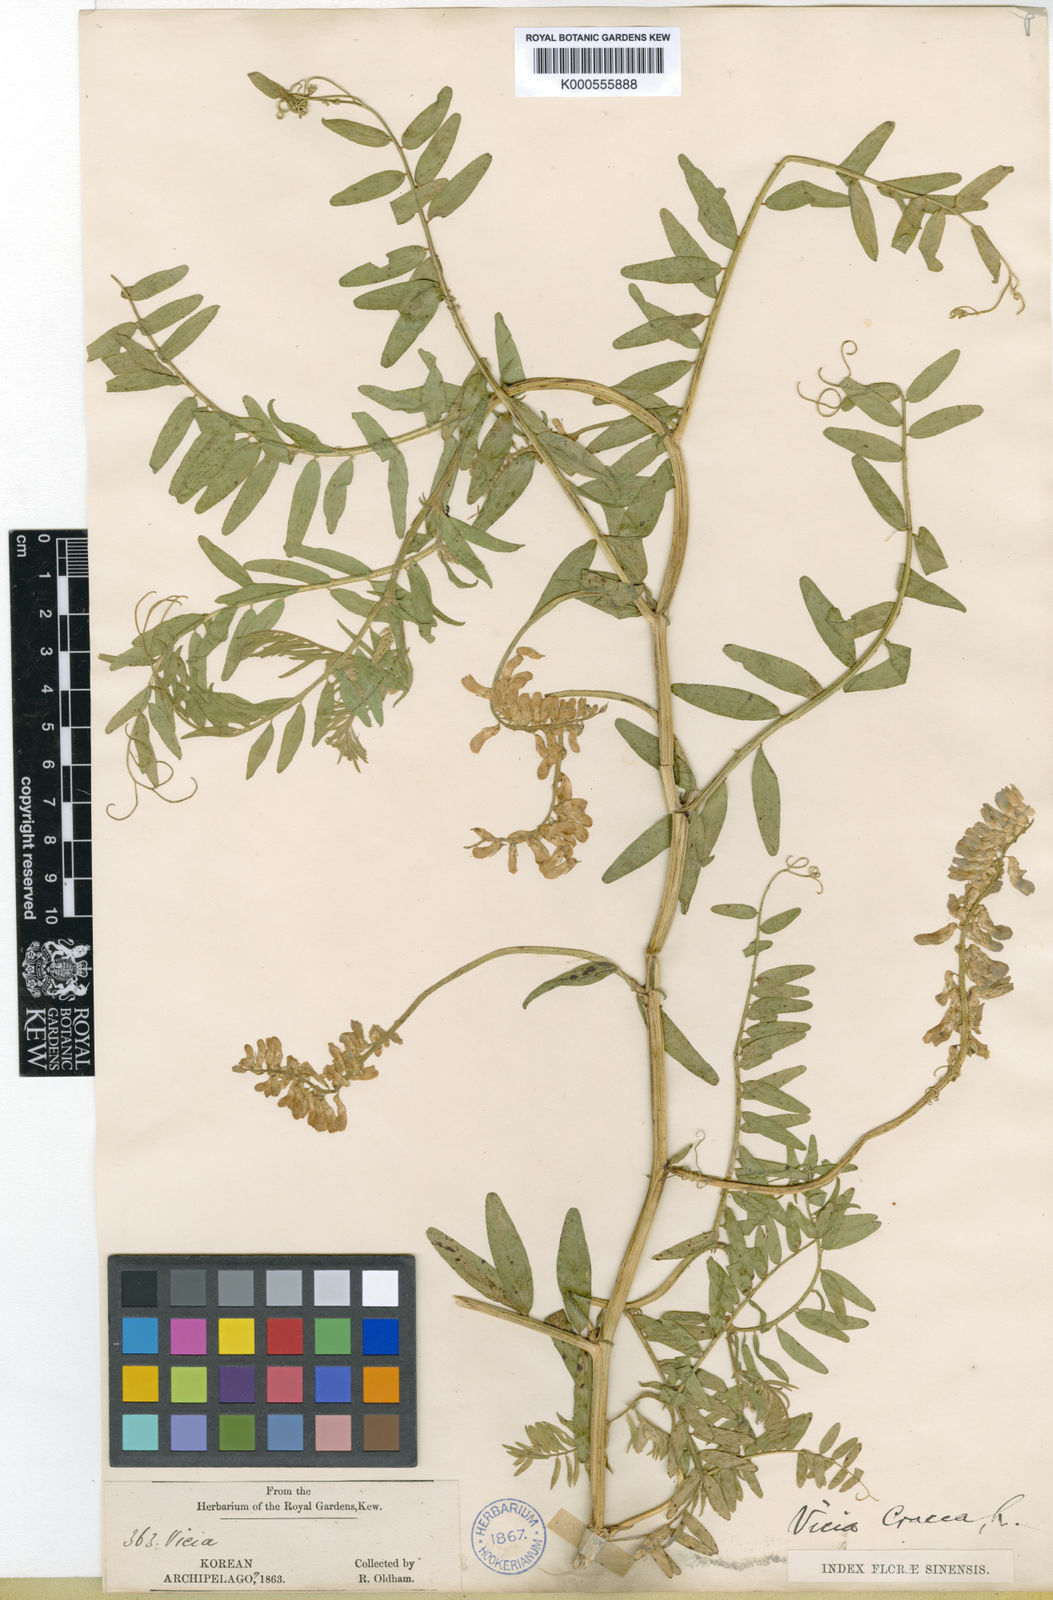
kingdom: Plantae
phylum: Tracheophyta
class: Magnoliopsida
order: Fabales
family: Fabaceae
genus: Vicia
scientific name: Vicia cracca
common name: Bird vetch
